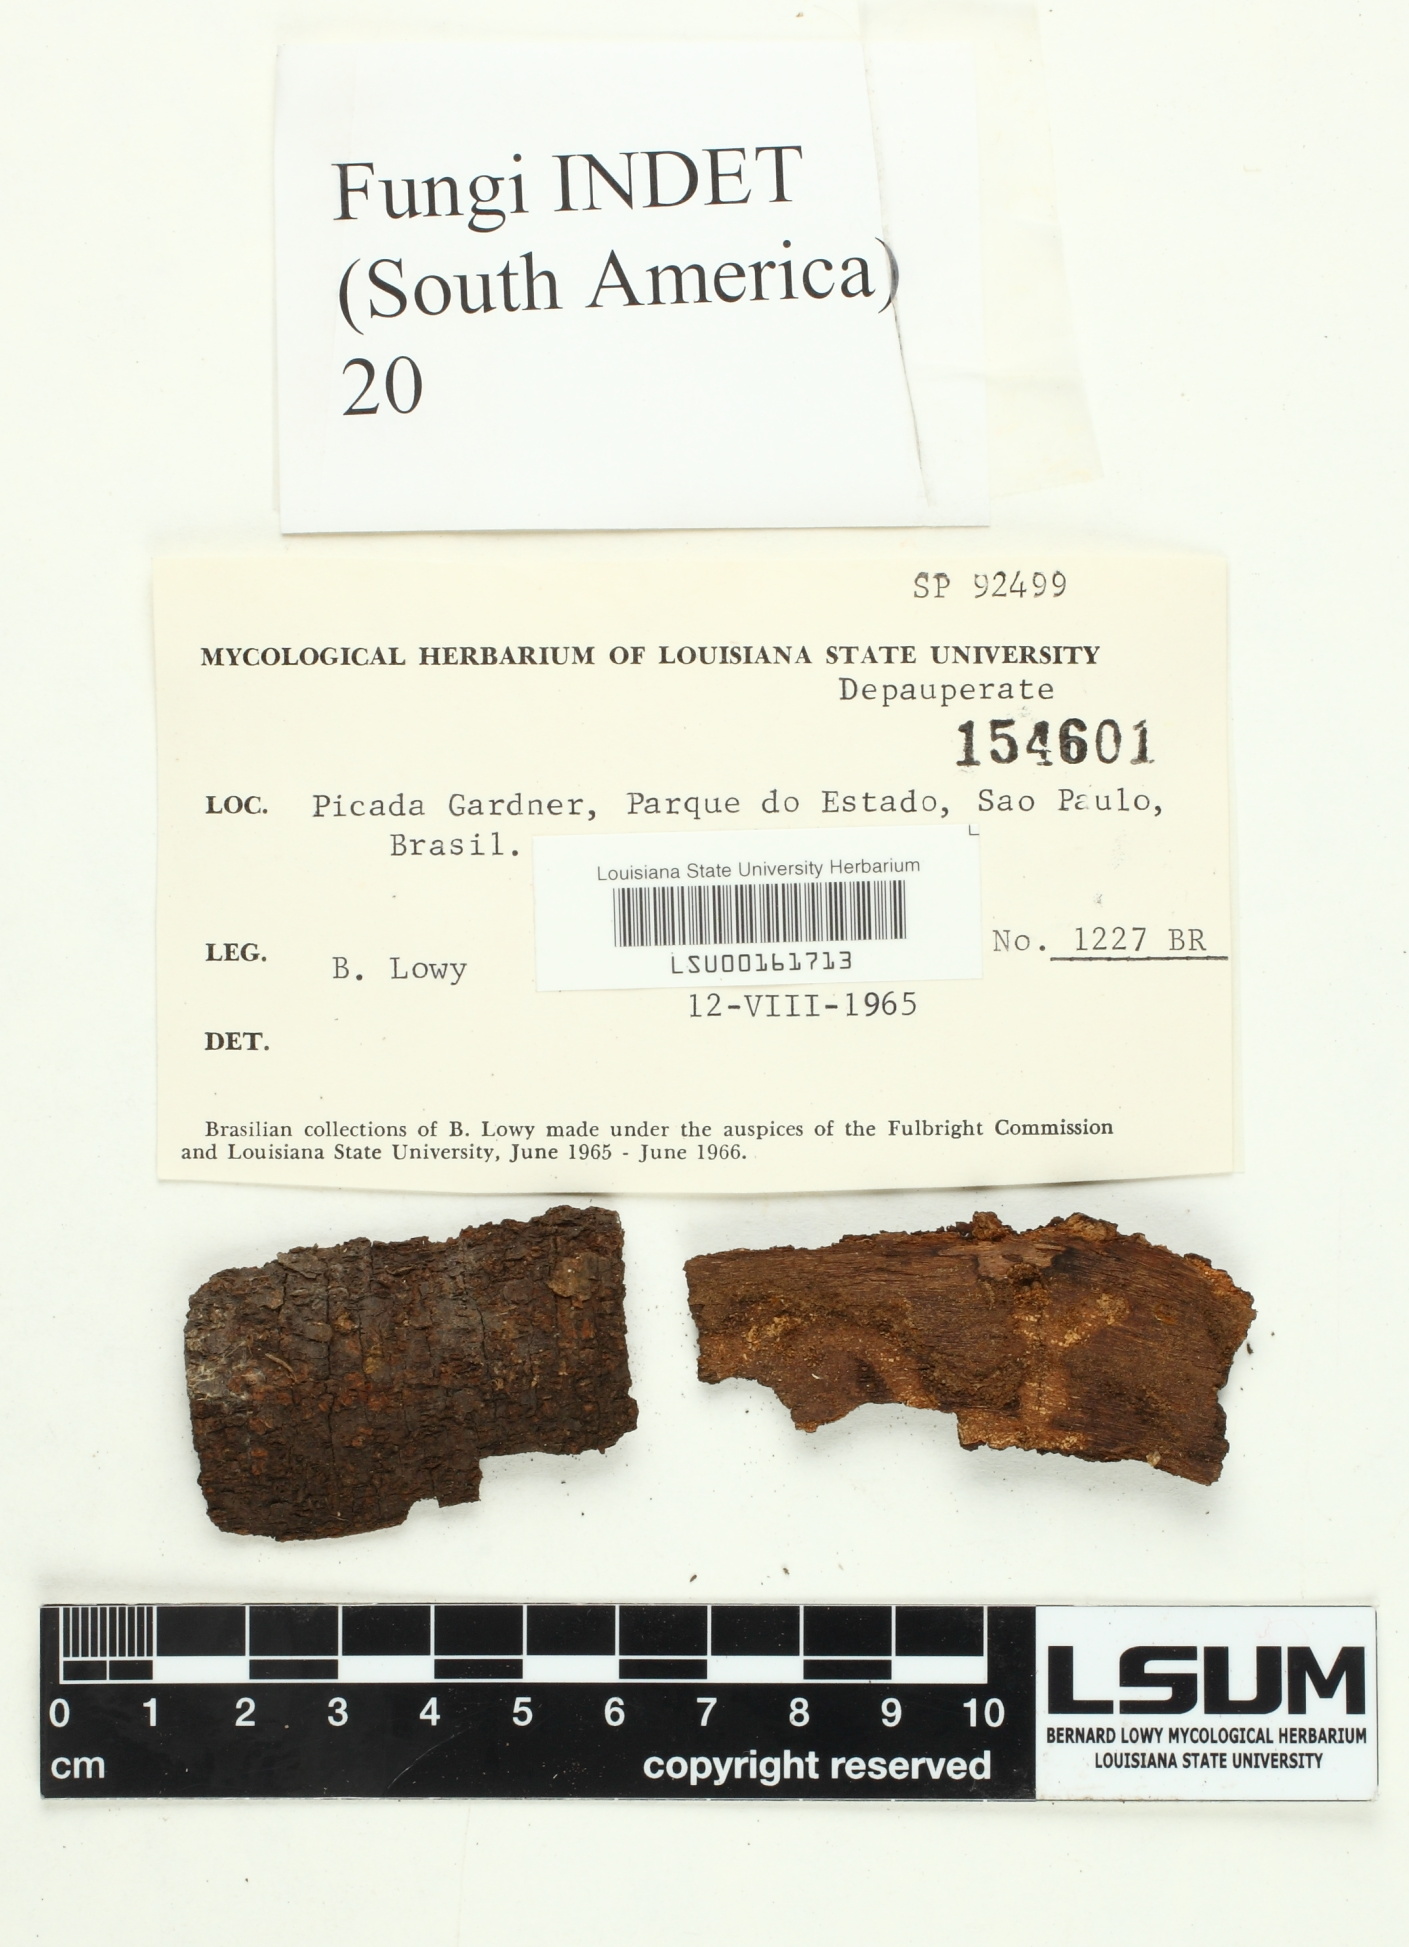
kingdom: Fungi
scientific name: Fungi
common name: Fungi
